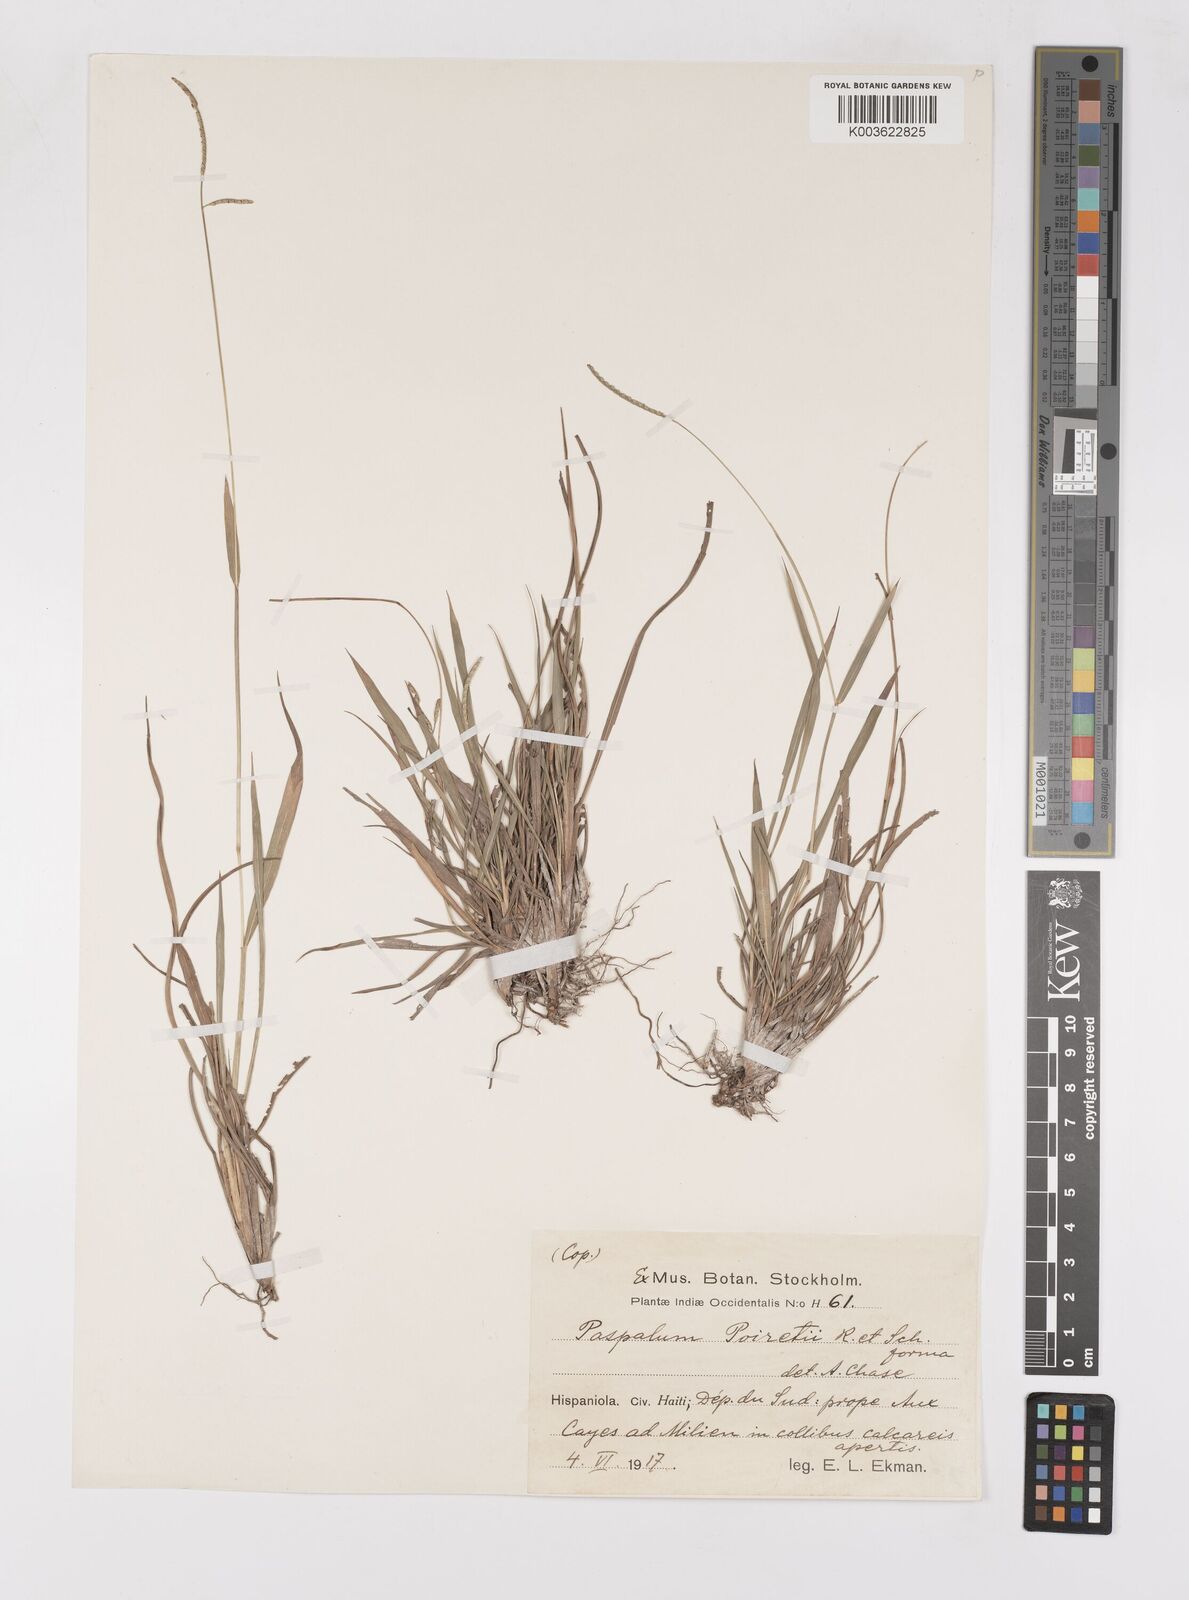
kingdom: Plantae
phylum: Tracheophyta
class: Liliopsida
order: Poales
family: Poaceae
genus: Paspalum
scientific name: Paspalum caespitosum
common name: Blue crowngrass
